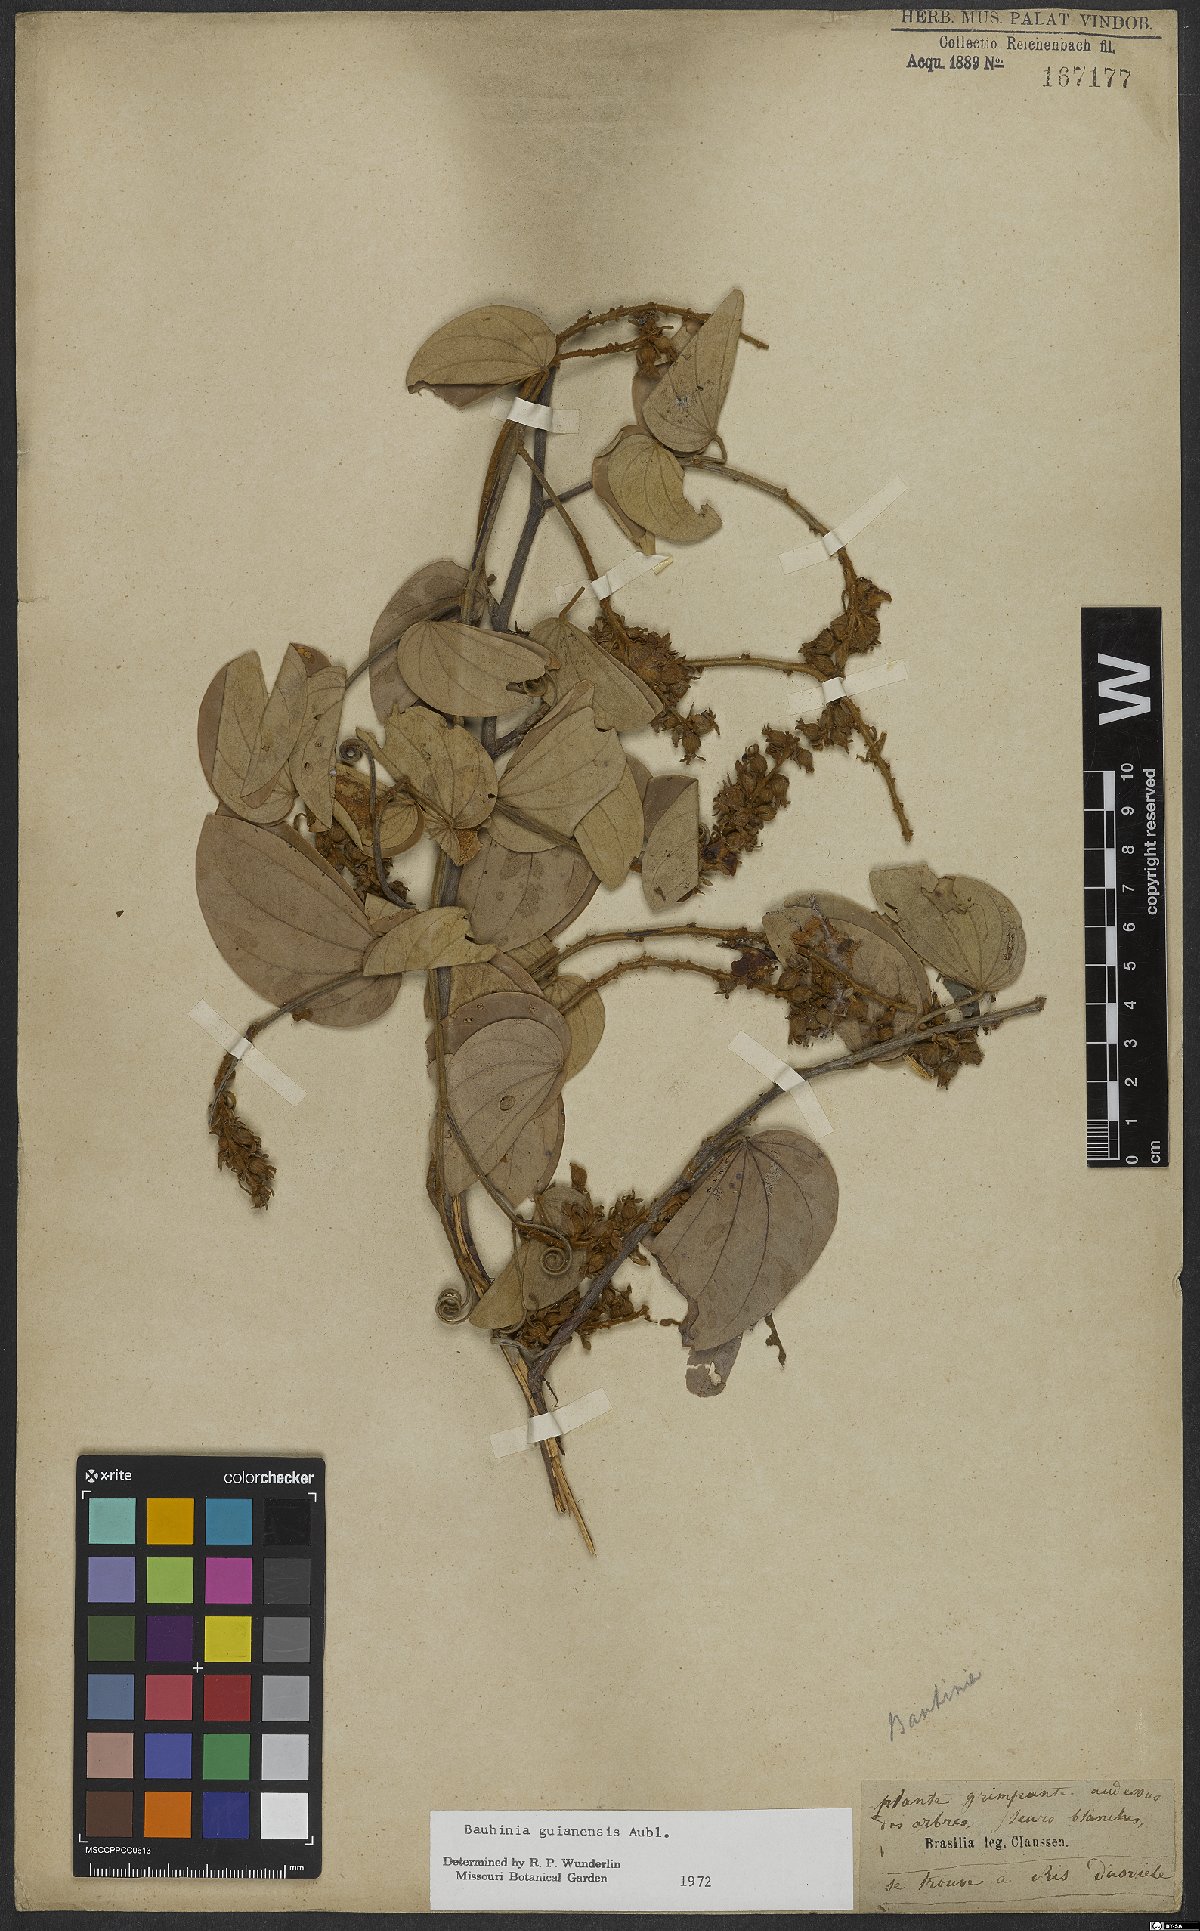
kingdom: Plantae
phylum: Tracheophyta
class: Magnoliopsida
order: Fabales
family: Fabaceae
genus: Schnella
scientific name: Schnella guianensis
